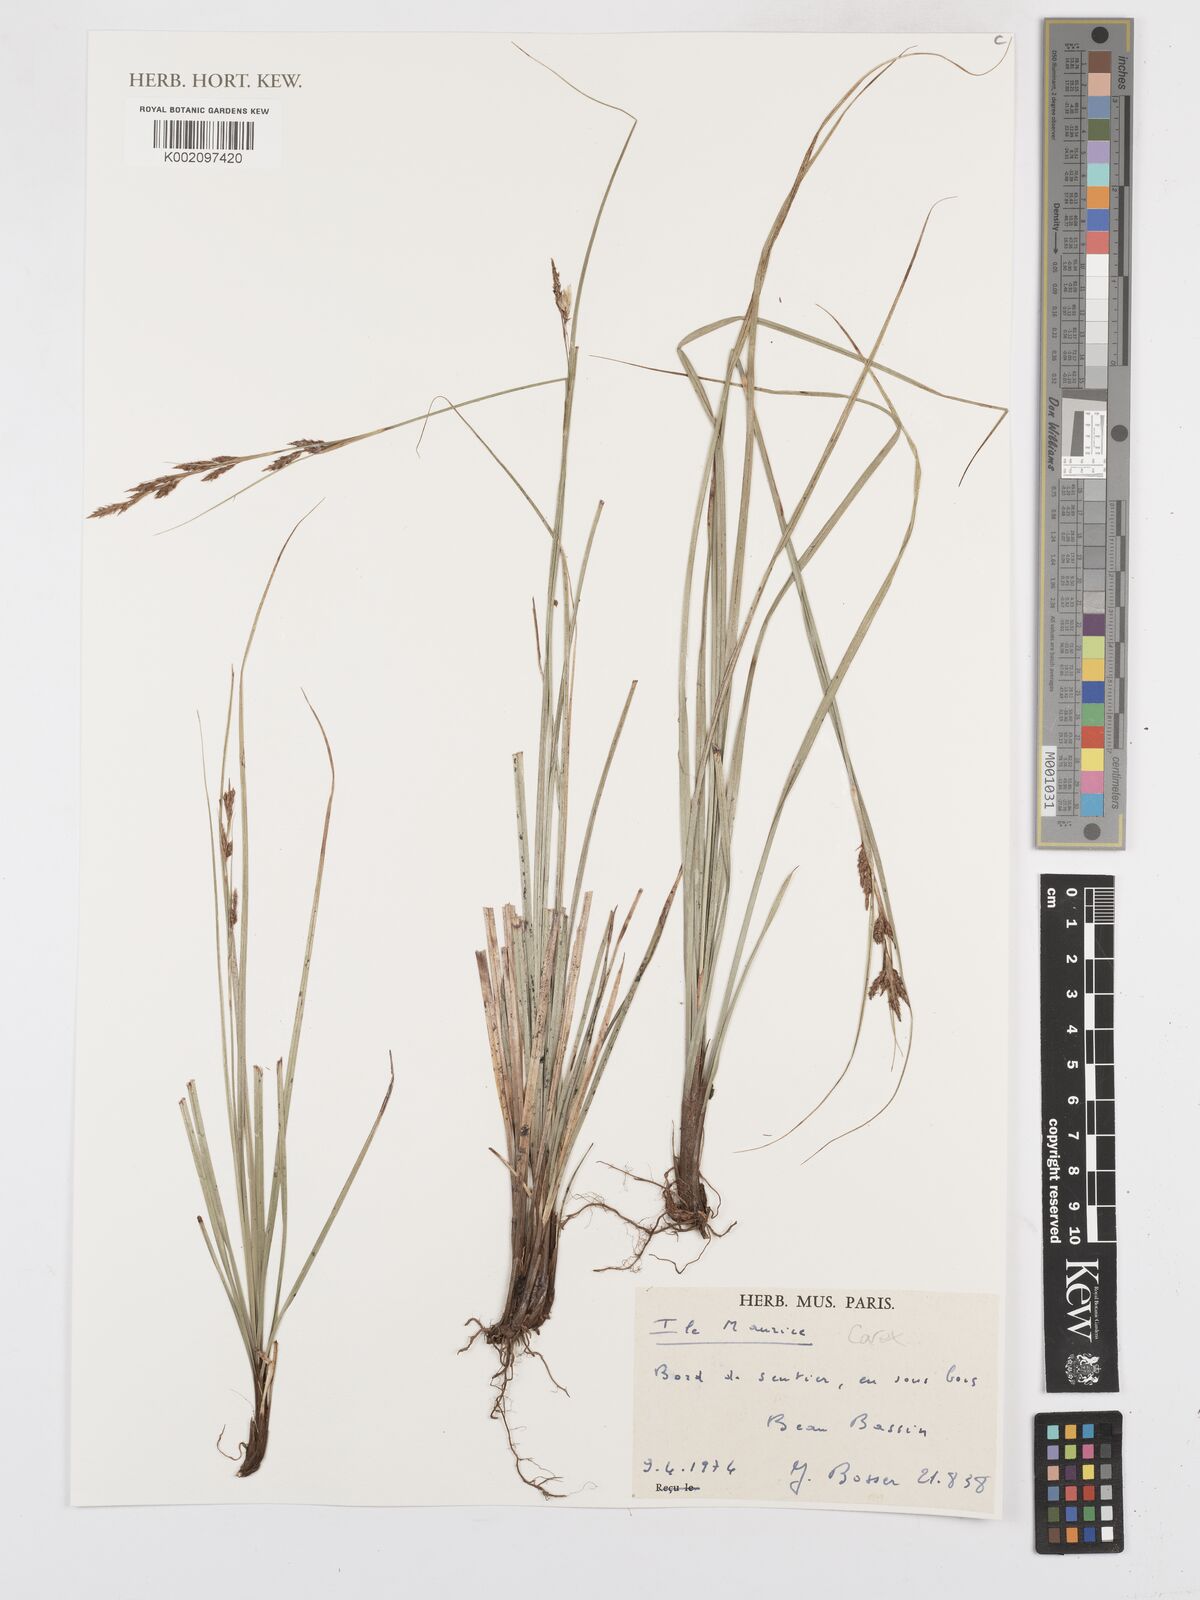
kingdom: Plantae
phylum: Tracheophyta
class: Liliopsida
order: Poales
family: Cyperaceae
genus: Carex
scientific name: Carex
